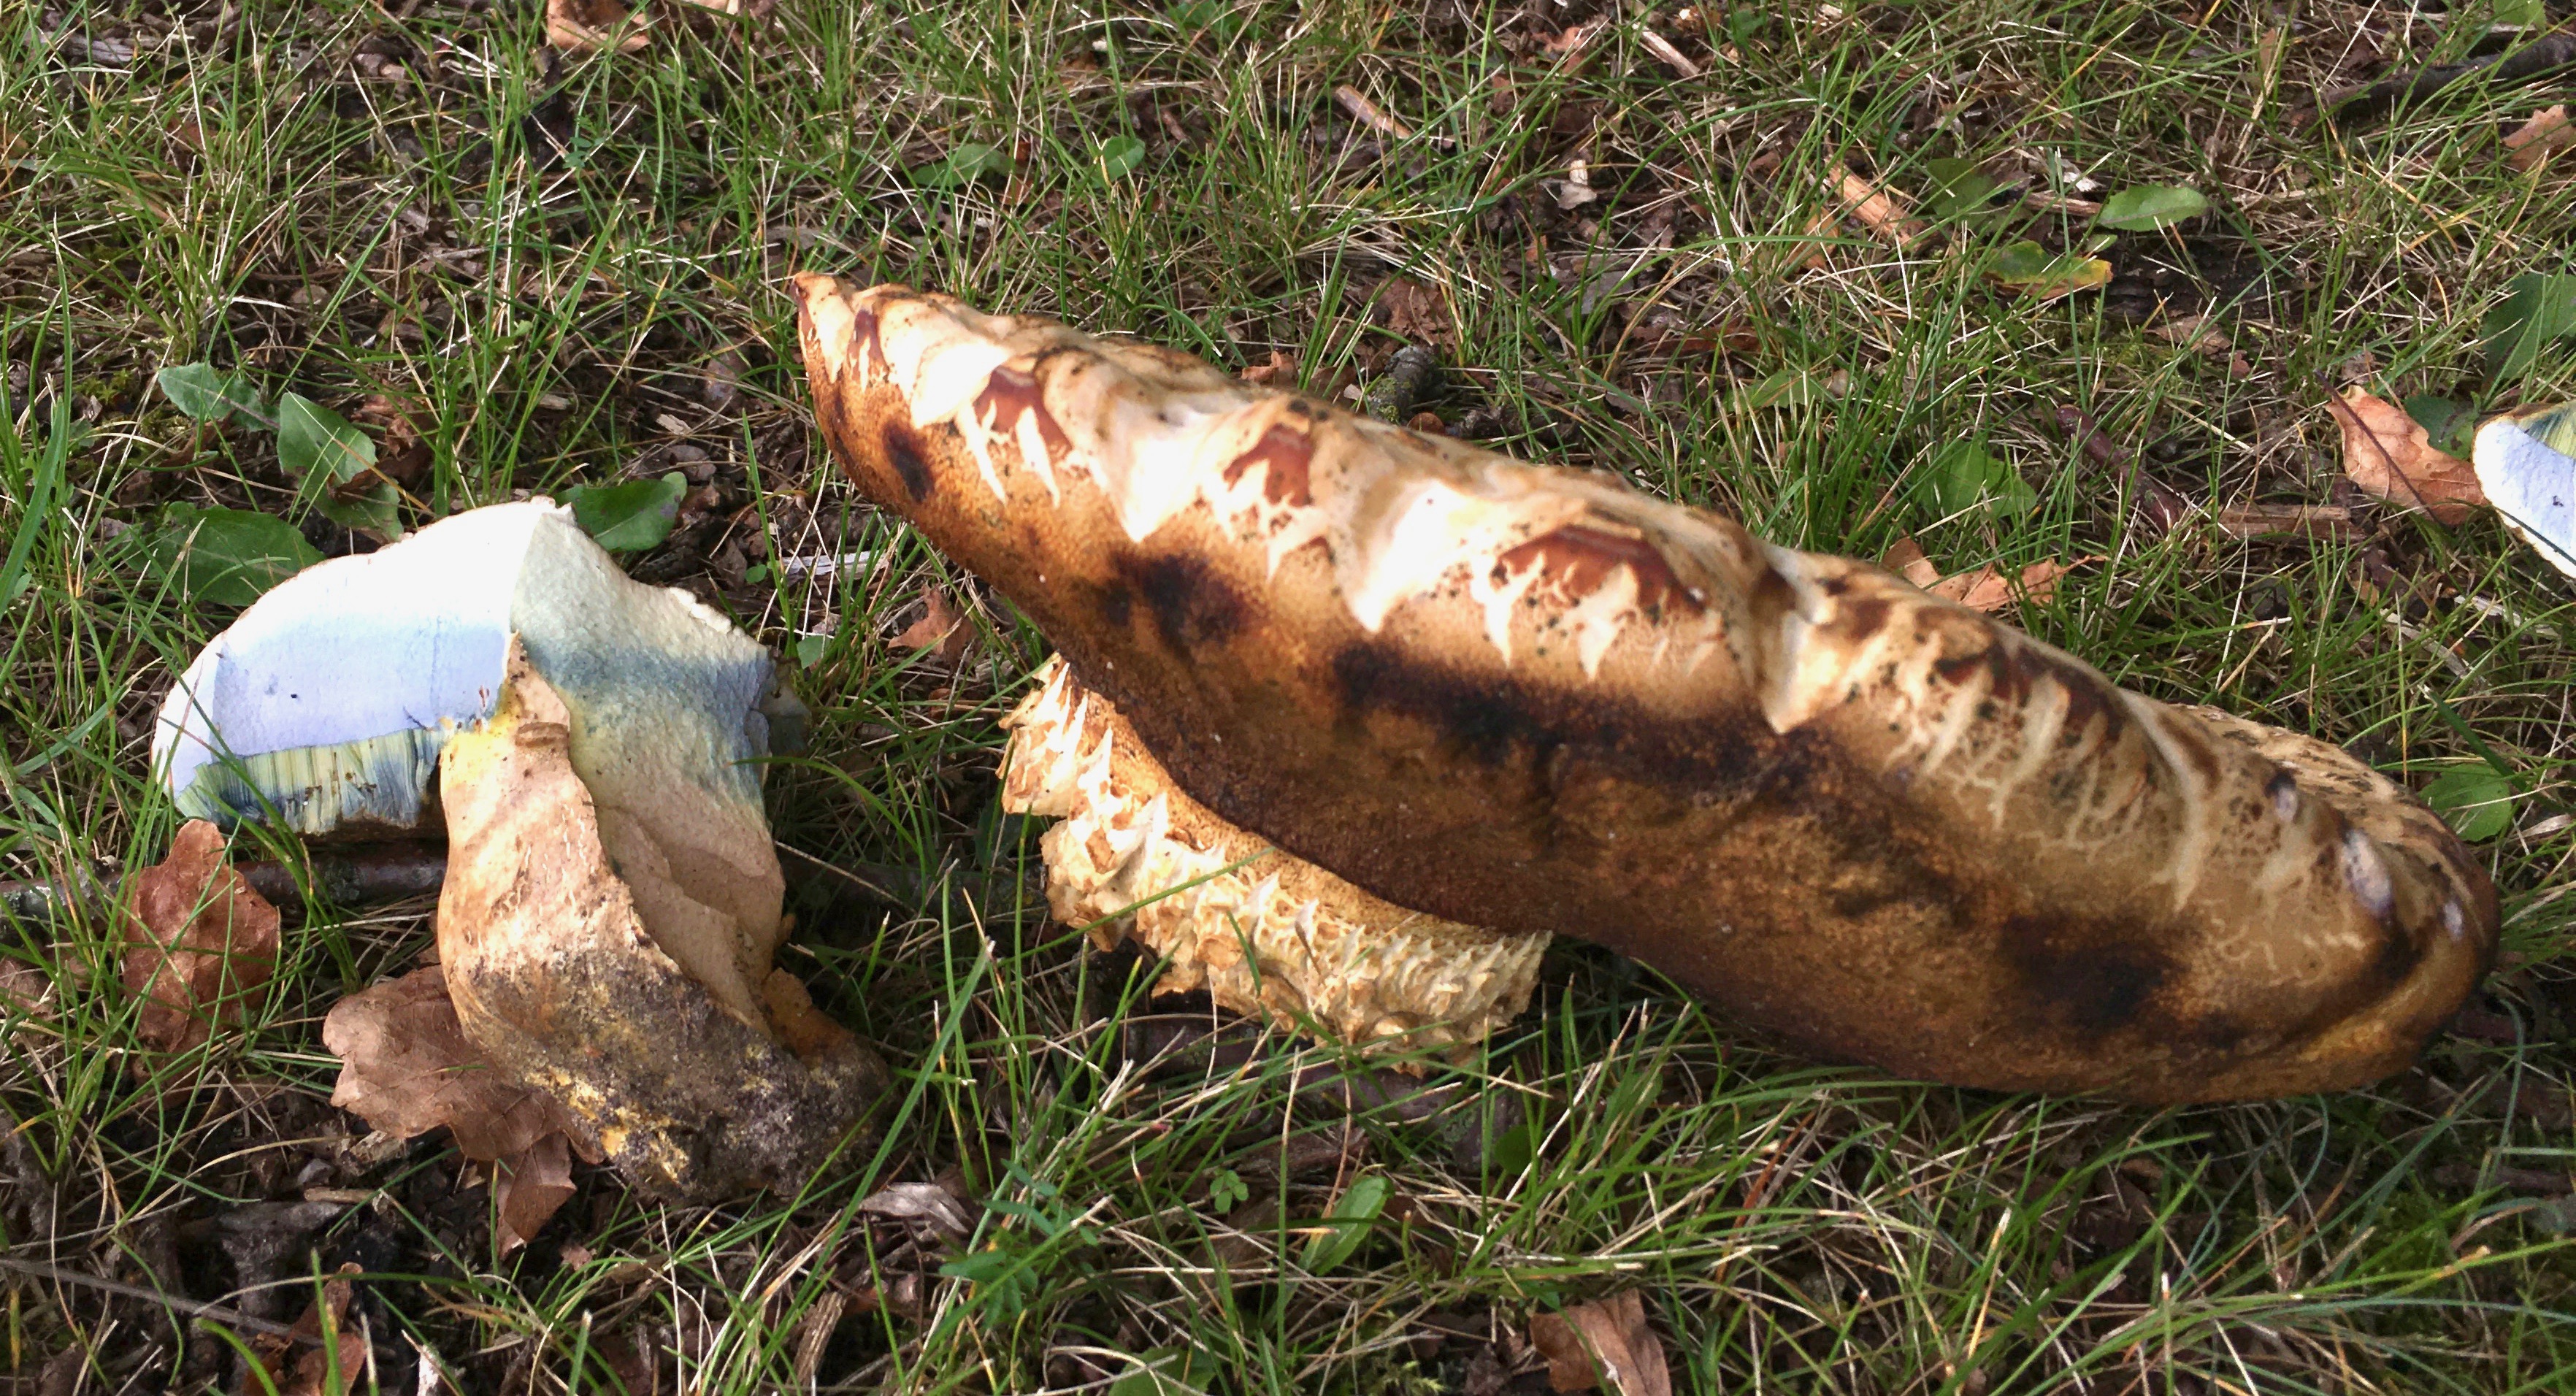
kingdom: Fungi
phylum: Basidiomycota
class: Agaricomycetes
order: Boletales
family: Boletaceae
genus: Caloboletus
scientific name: Caloboletus radicans
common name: rod-rørhat
